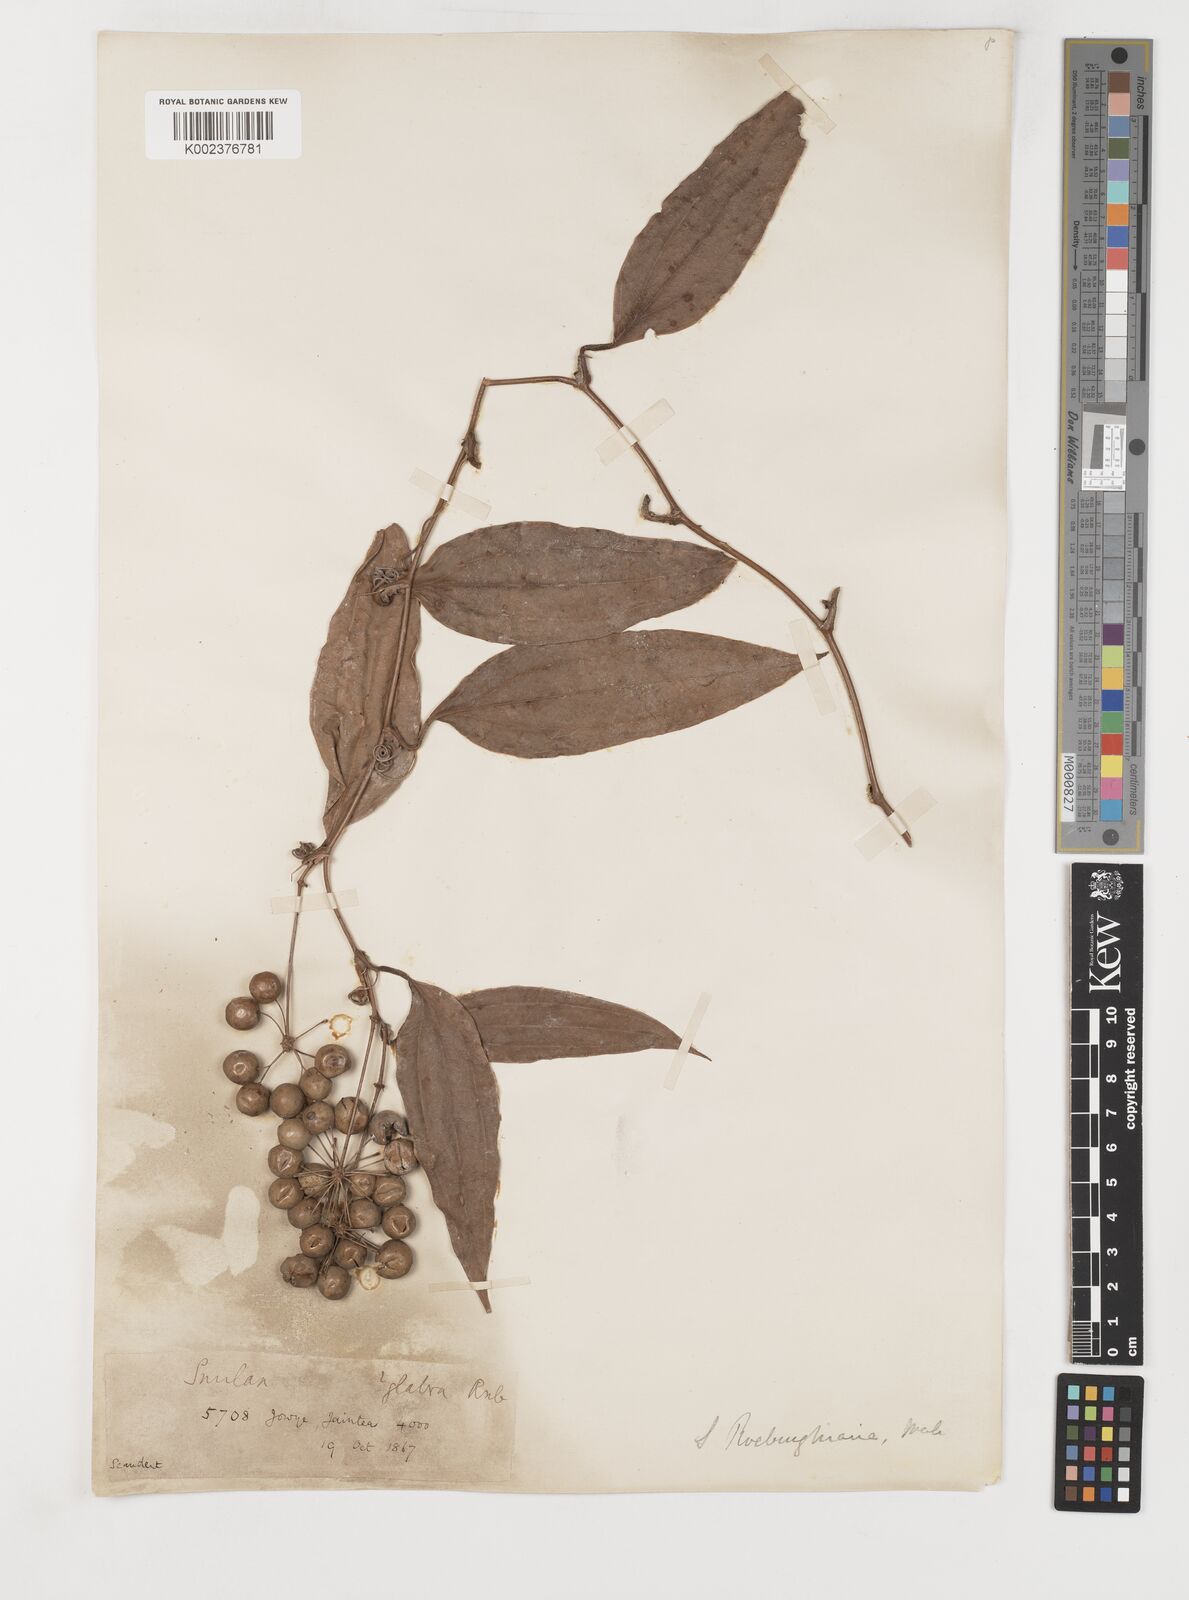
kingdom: Plantae
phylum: Tracheophyta
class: Liliopsida
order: Liliales
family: Smilacaceae
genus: Smilax
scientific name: Smilax ocreata
